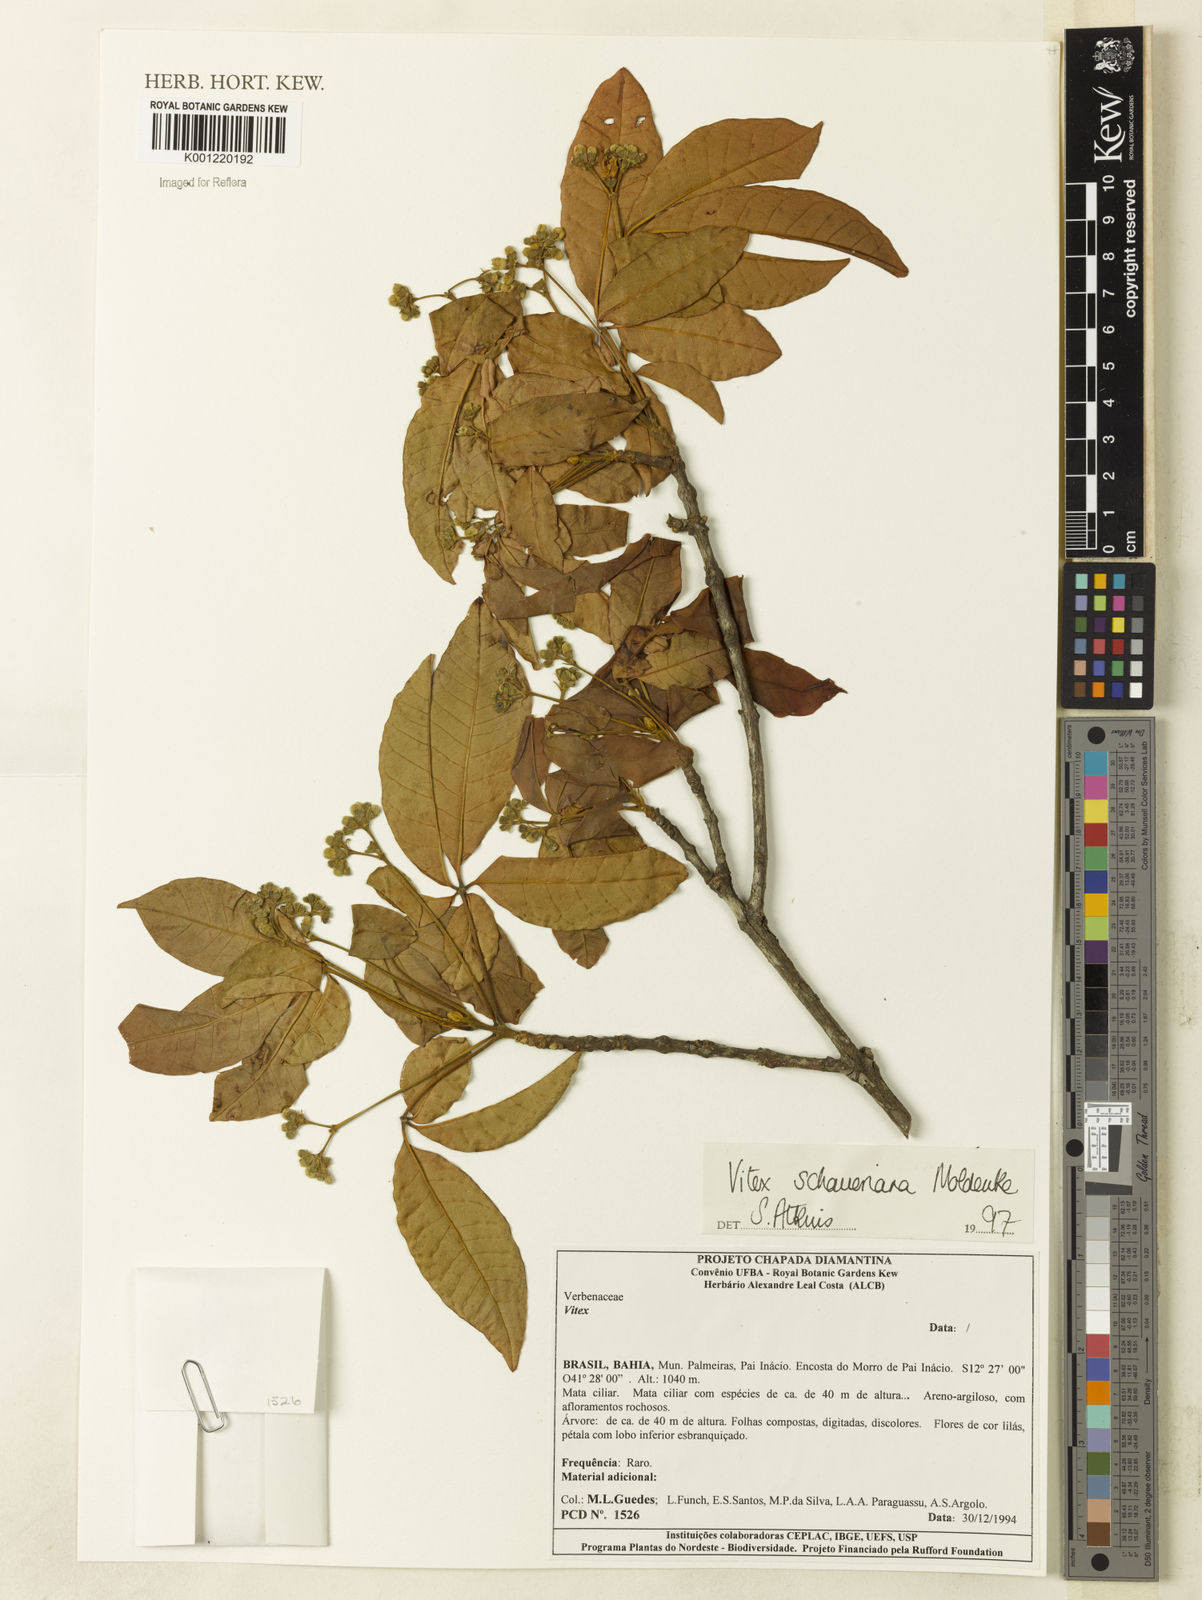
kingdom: Plantae
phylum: Tracheophyta
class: Magnoliopsida
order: Lamiales
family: Lamiaceae
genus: Vitex
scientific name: Vitex schaueriana
